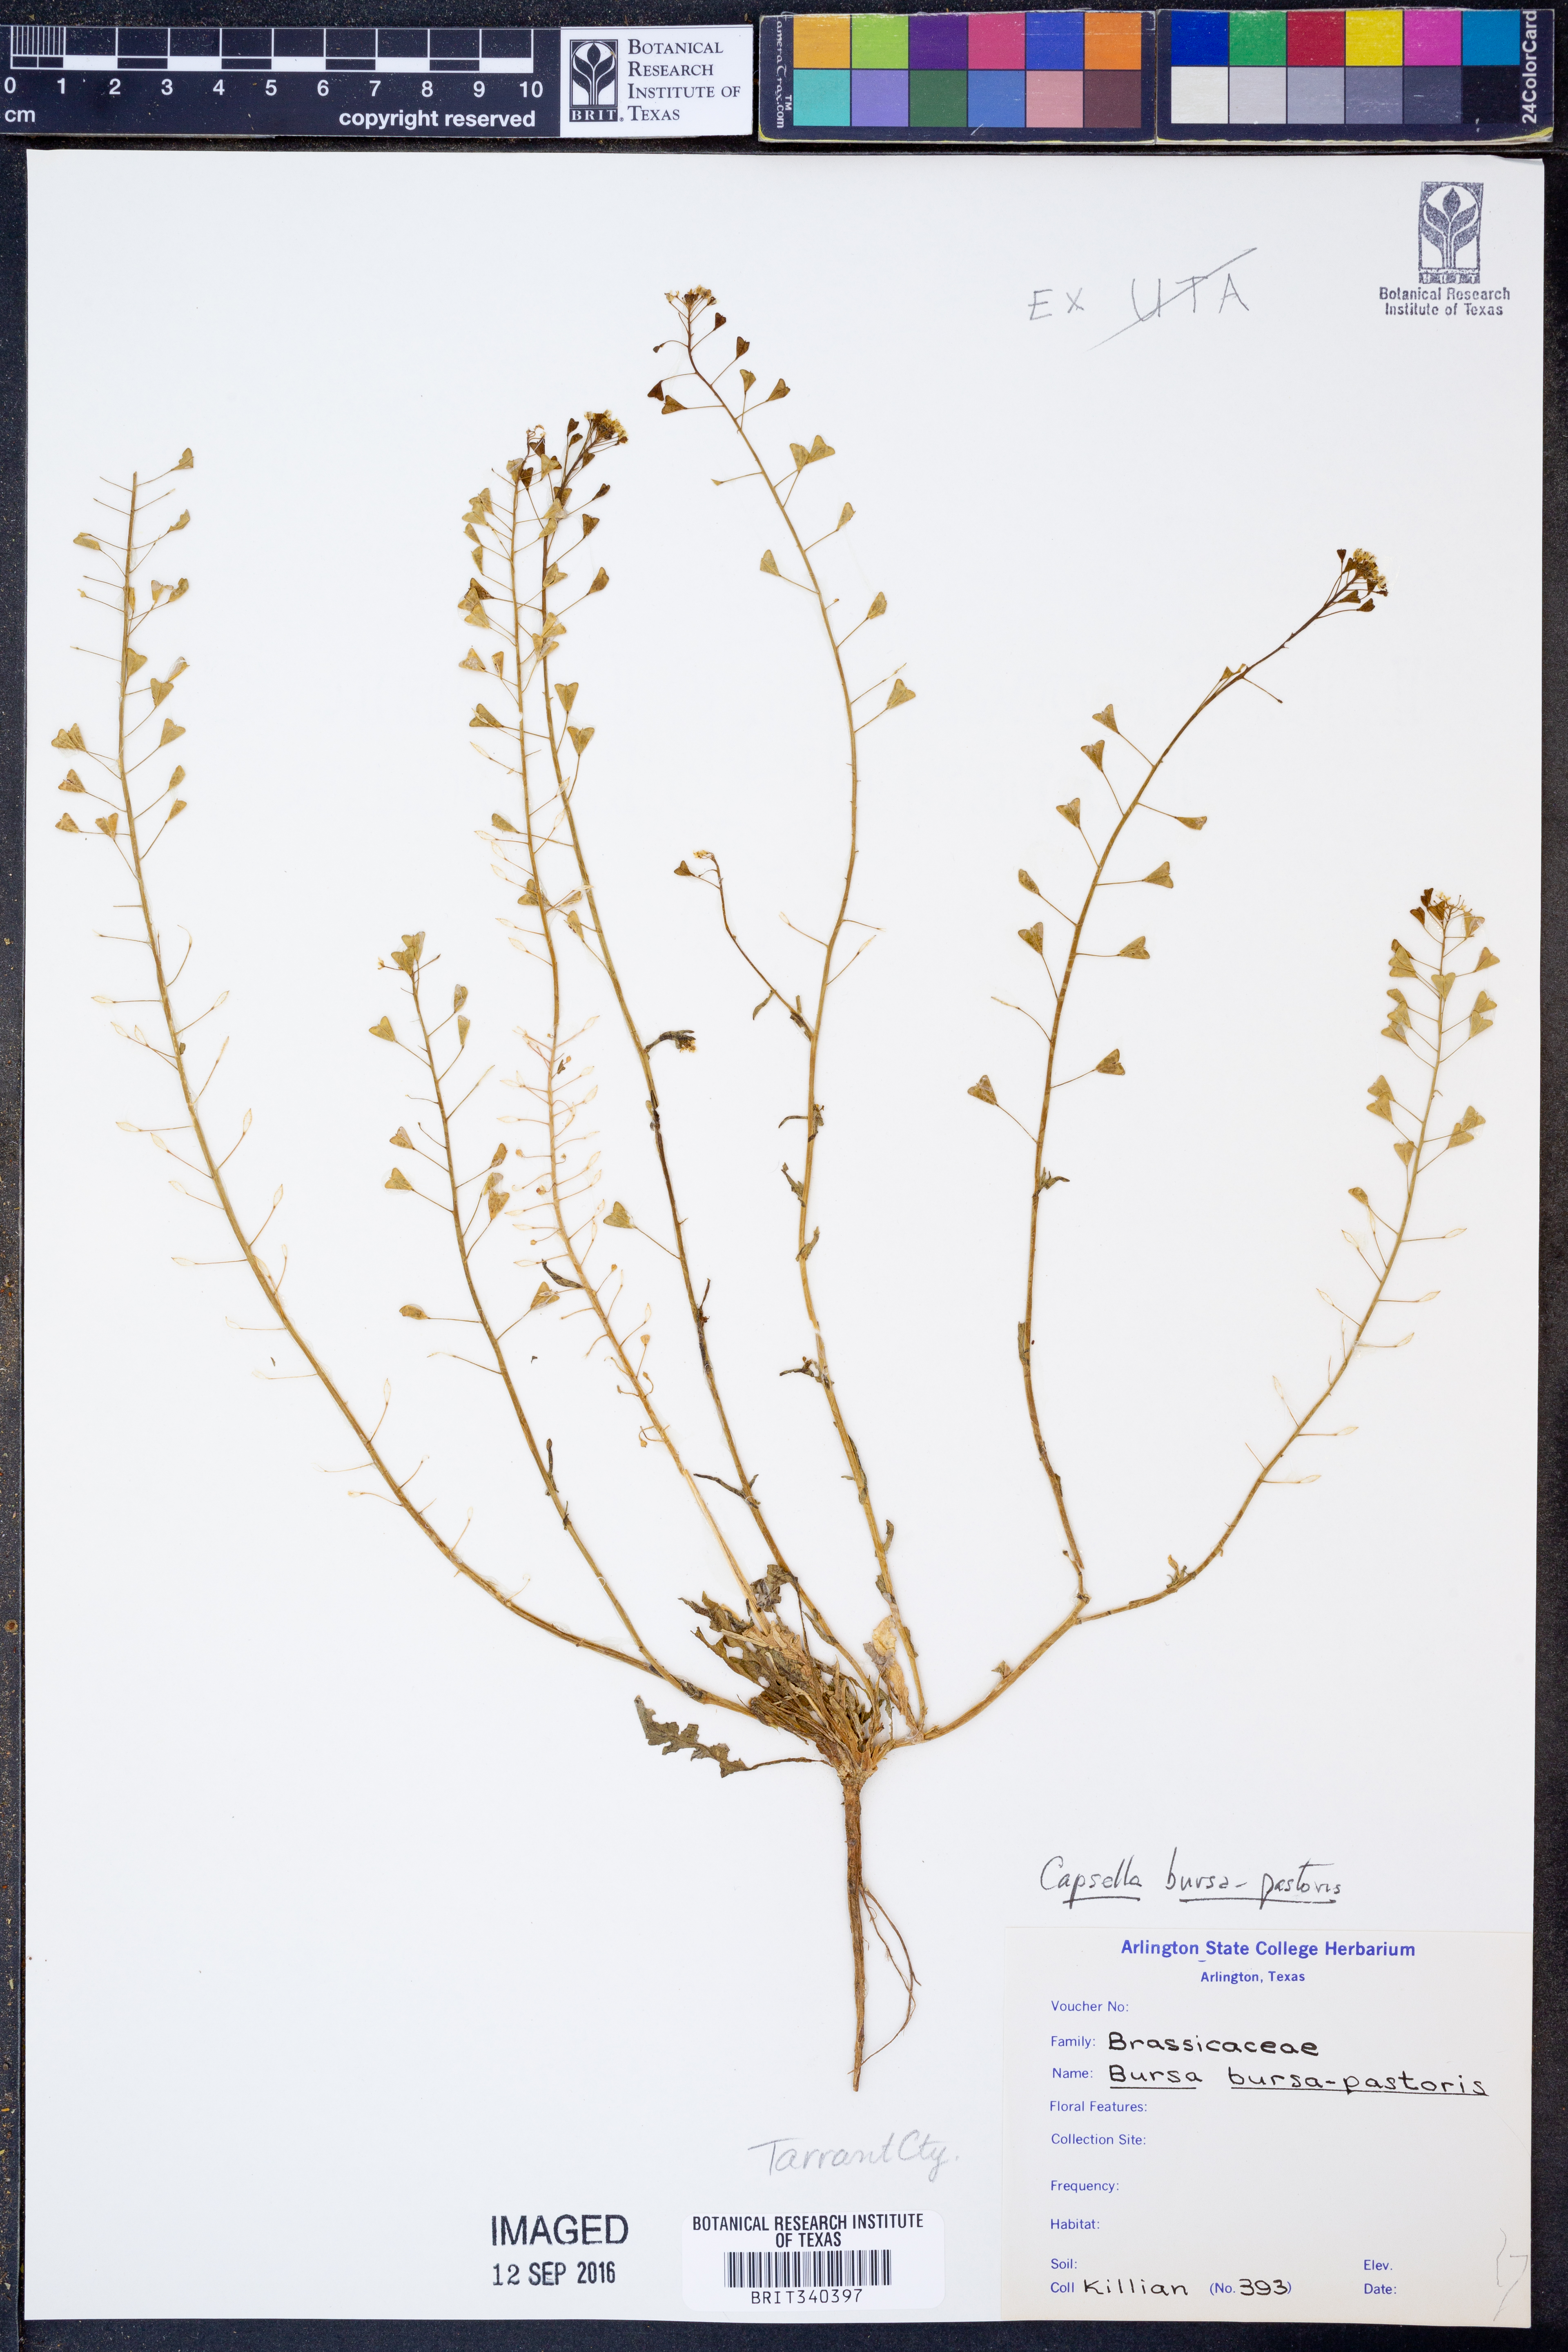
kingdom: Plantae
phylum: Tracheophyta
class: Magnoliopsida
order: Brassicales
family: Brassicaceae
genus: Capsella
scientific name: Capsella bursa-pastoris
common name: Shepherd's purse
